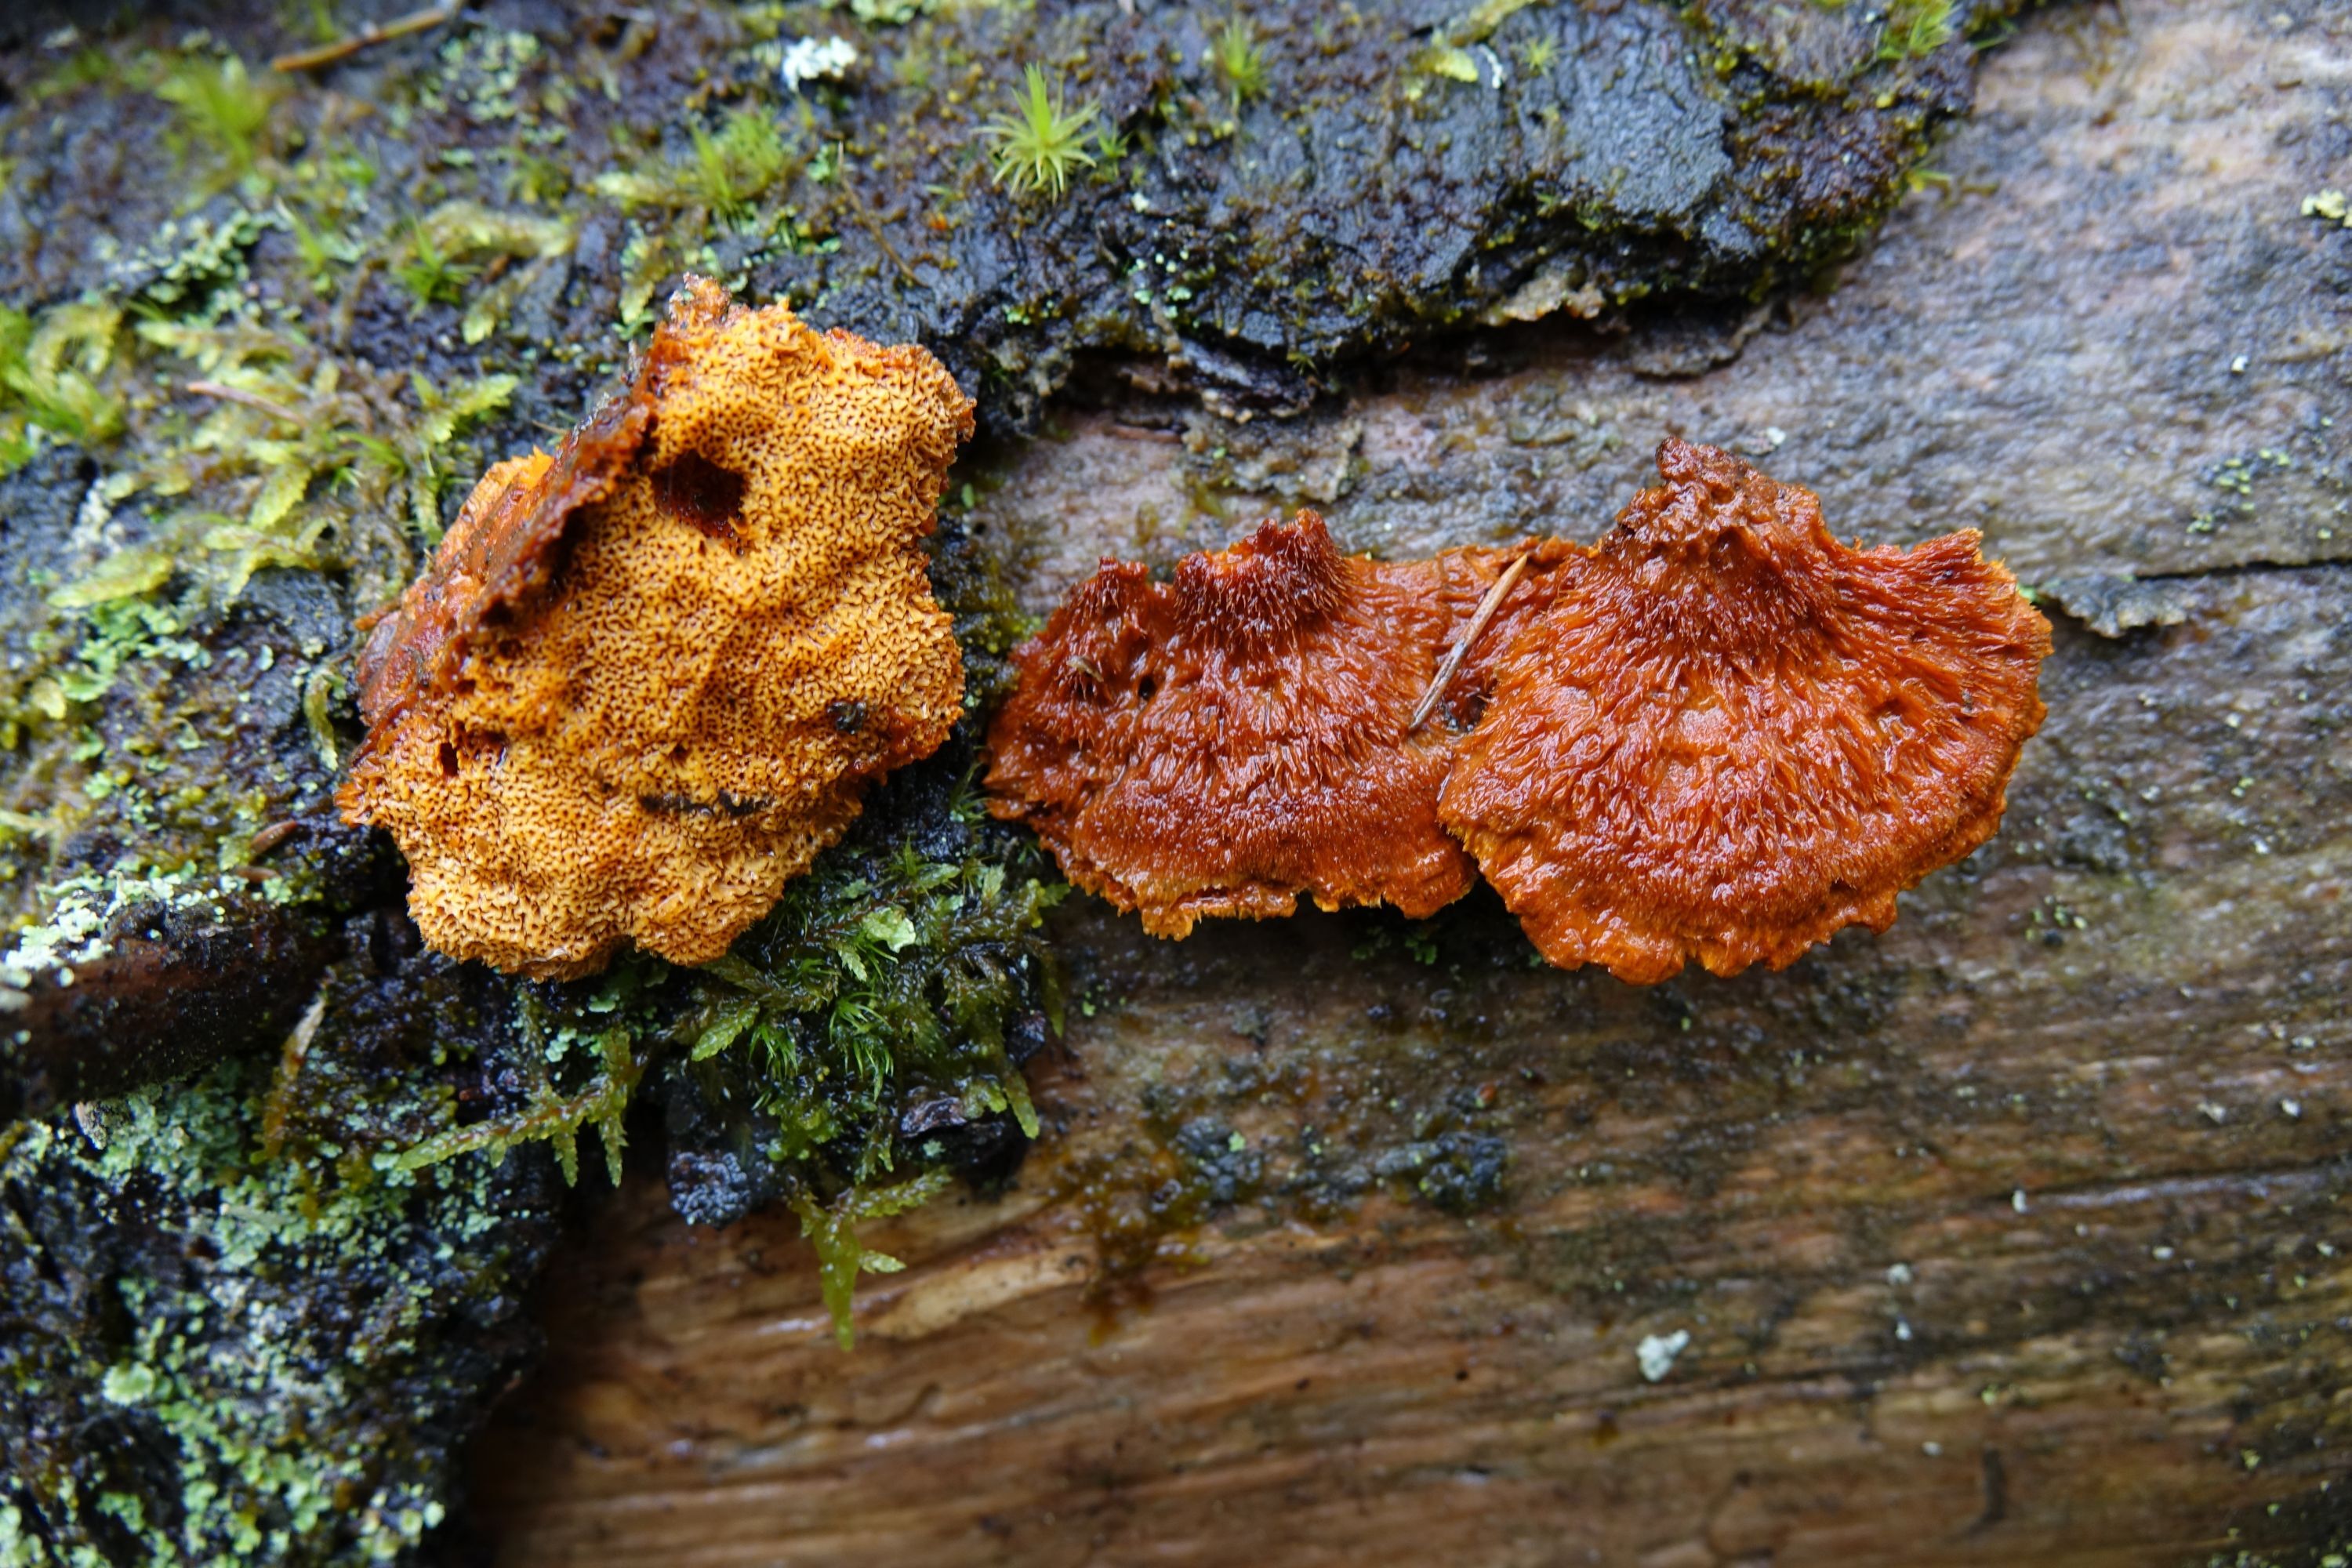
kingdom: Fungi
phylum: Basidiomycota
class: Agaricomycetes
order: Polyporales
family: Pycnoporellaceae
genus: Pycnoporellus
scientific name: Pycnoporellus fulgens
